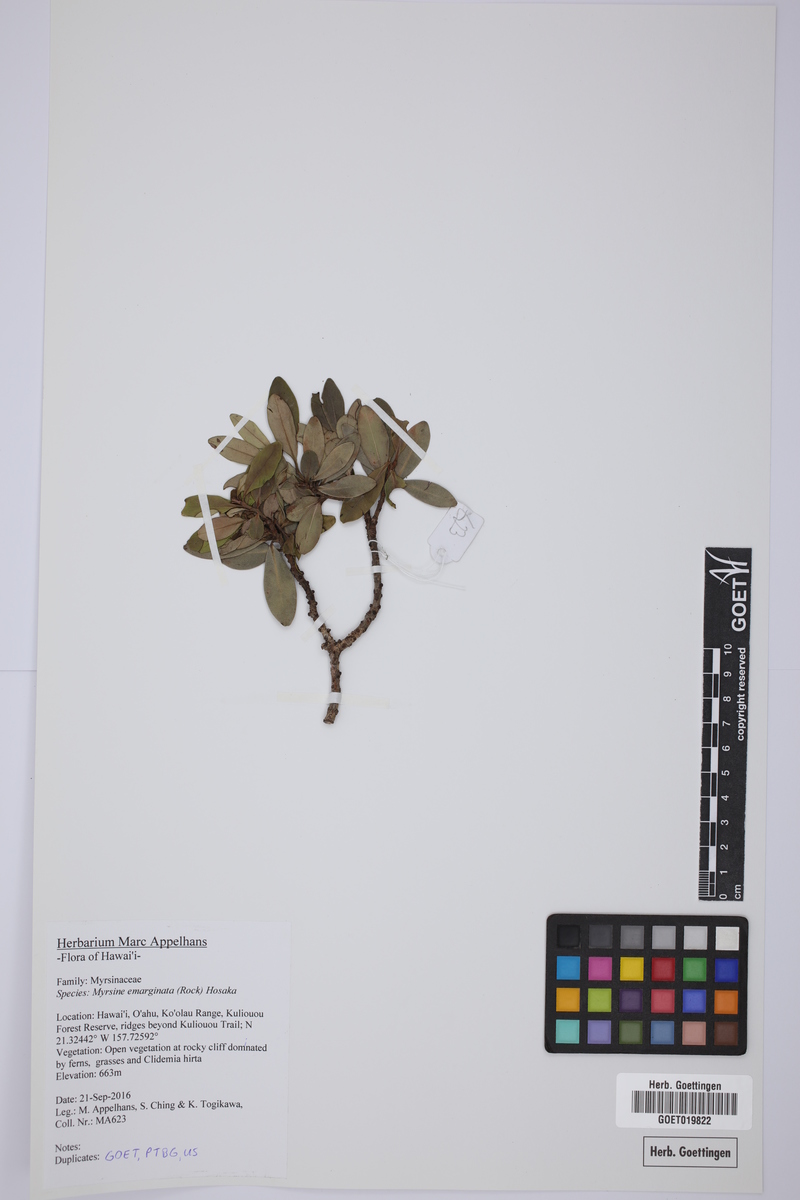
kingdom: Plantae
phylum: Tracheophyta
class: Magnoliopsida
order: Ericales
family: Primulaceae
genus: Myrsine
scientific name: Myrsine lessertiana
